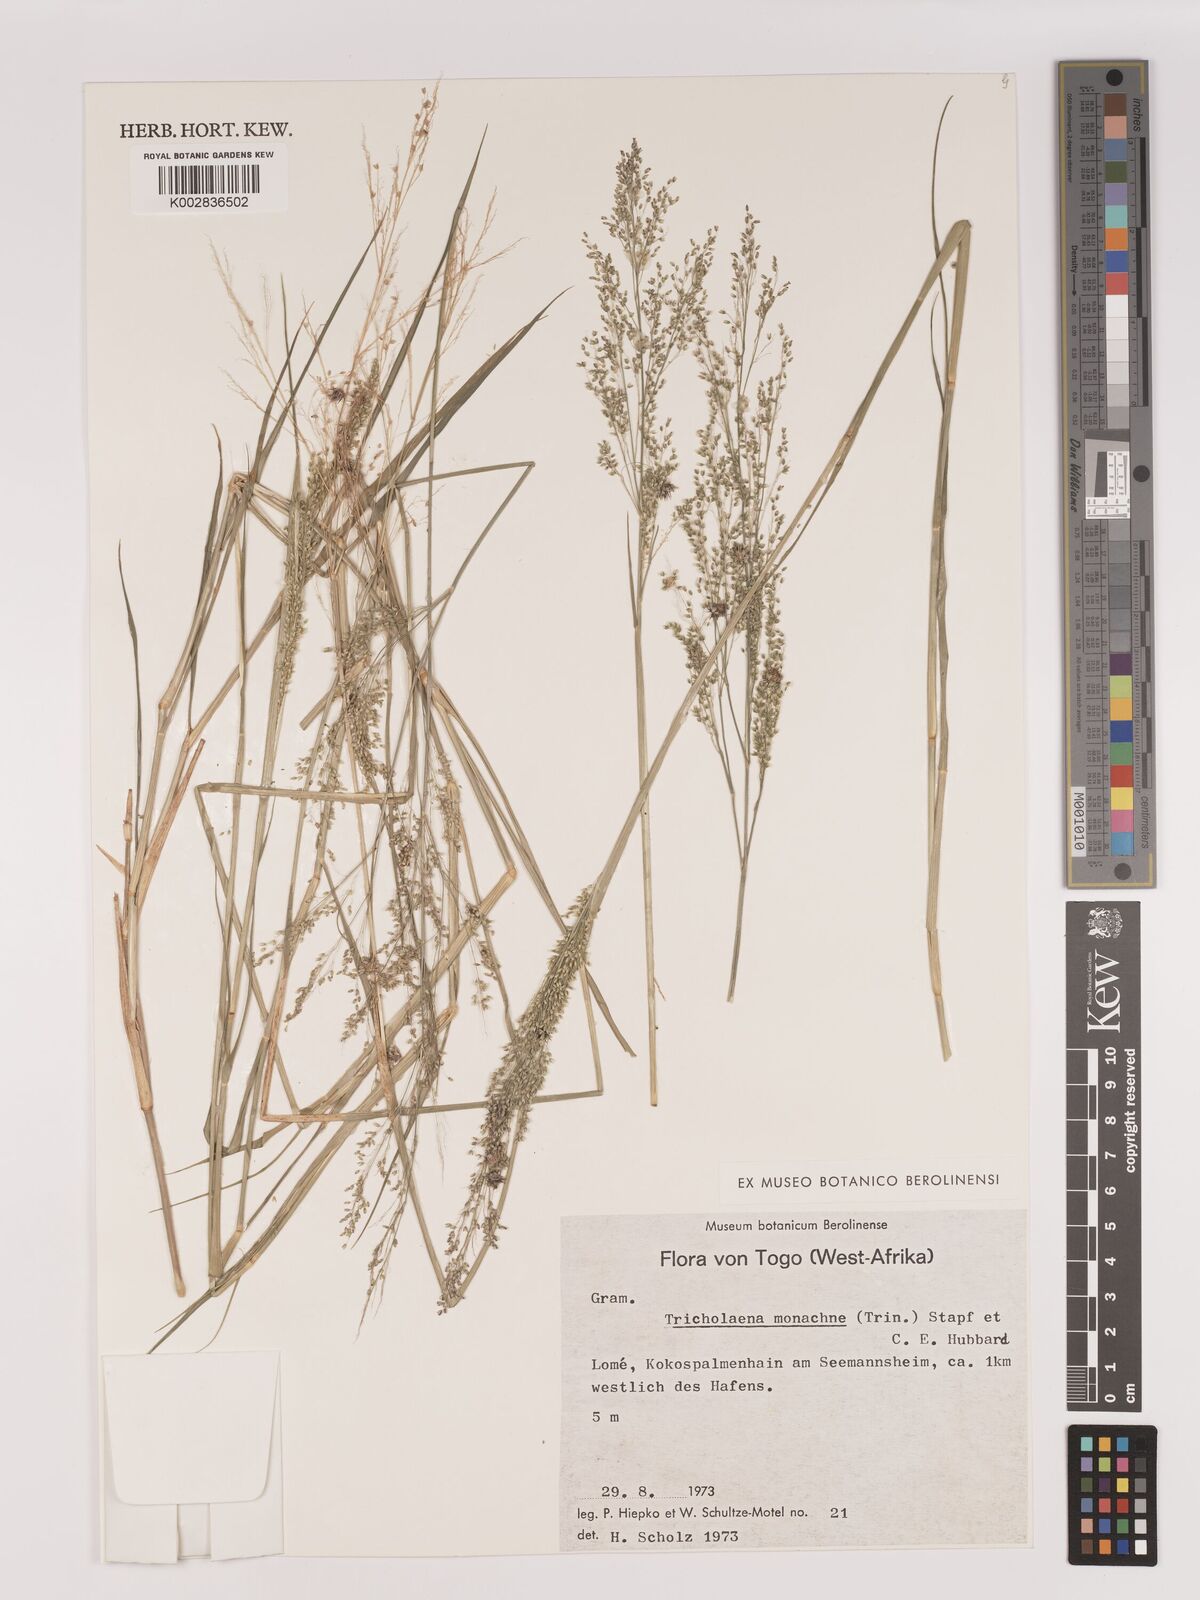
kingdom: Plantae
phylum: Tracheophyta
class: Liliopsida
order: Poales
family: Poaceae
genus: Tricholaena
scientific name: Tricholaena monachne
